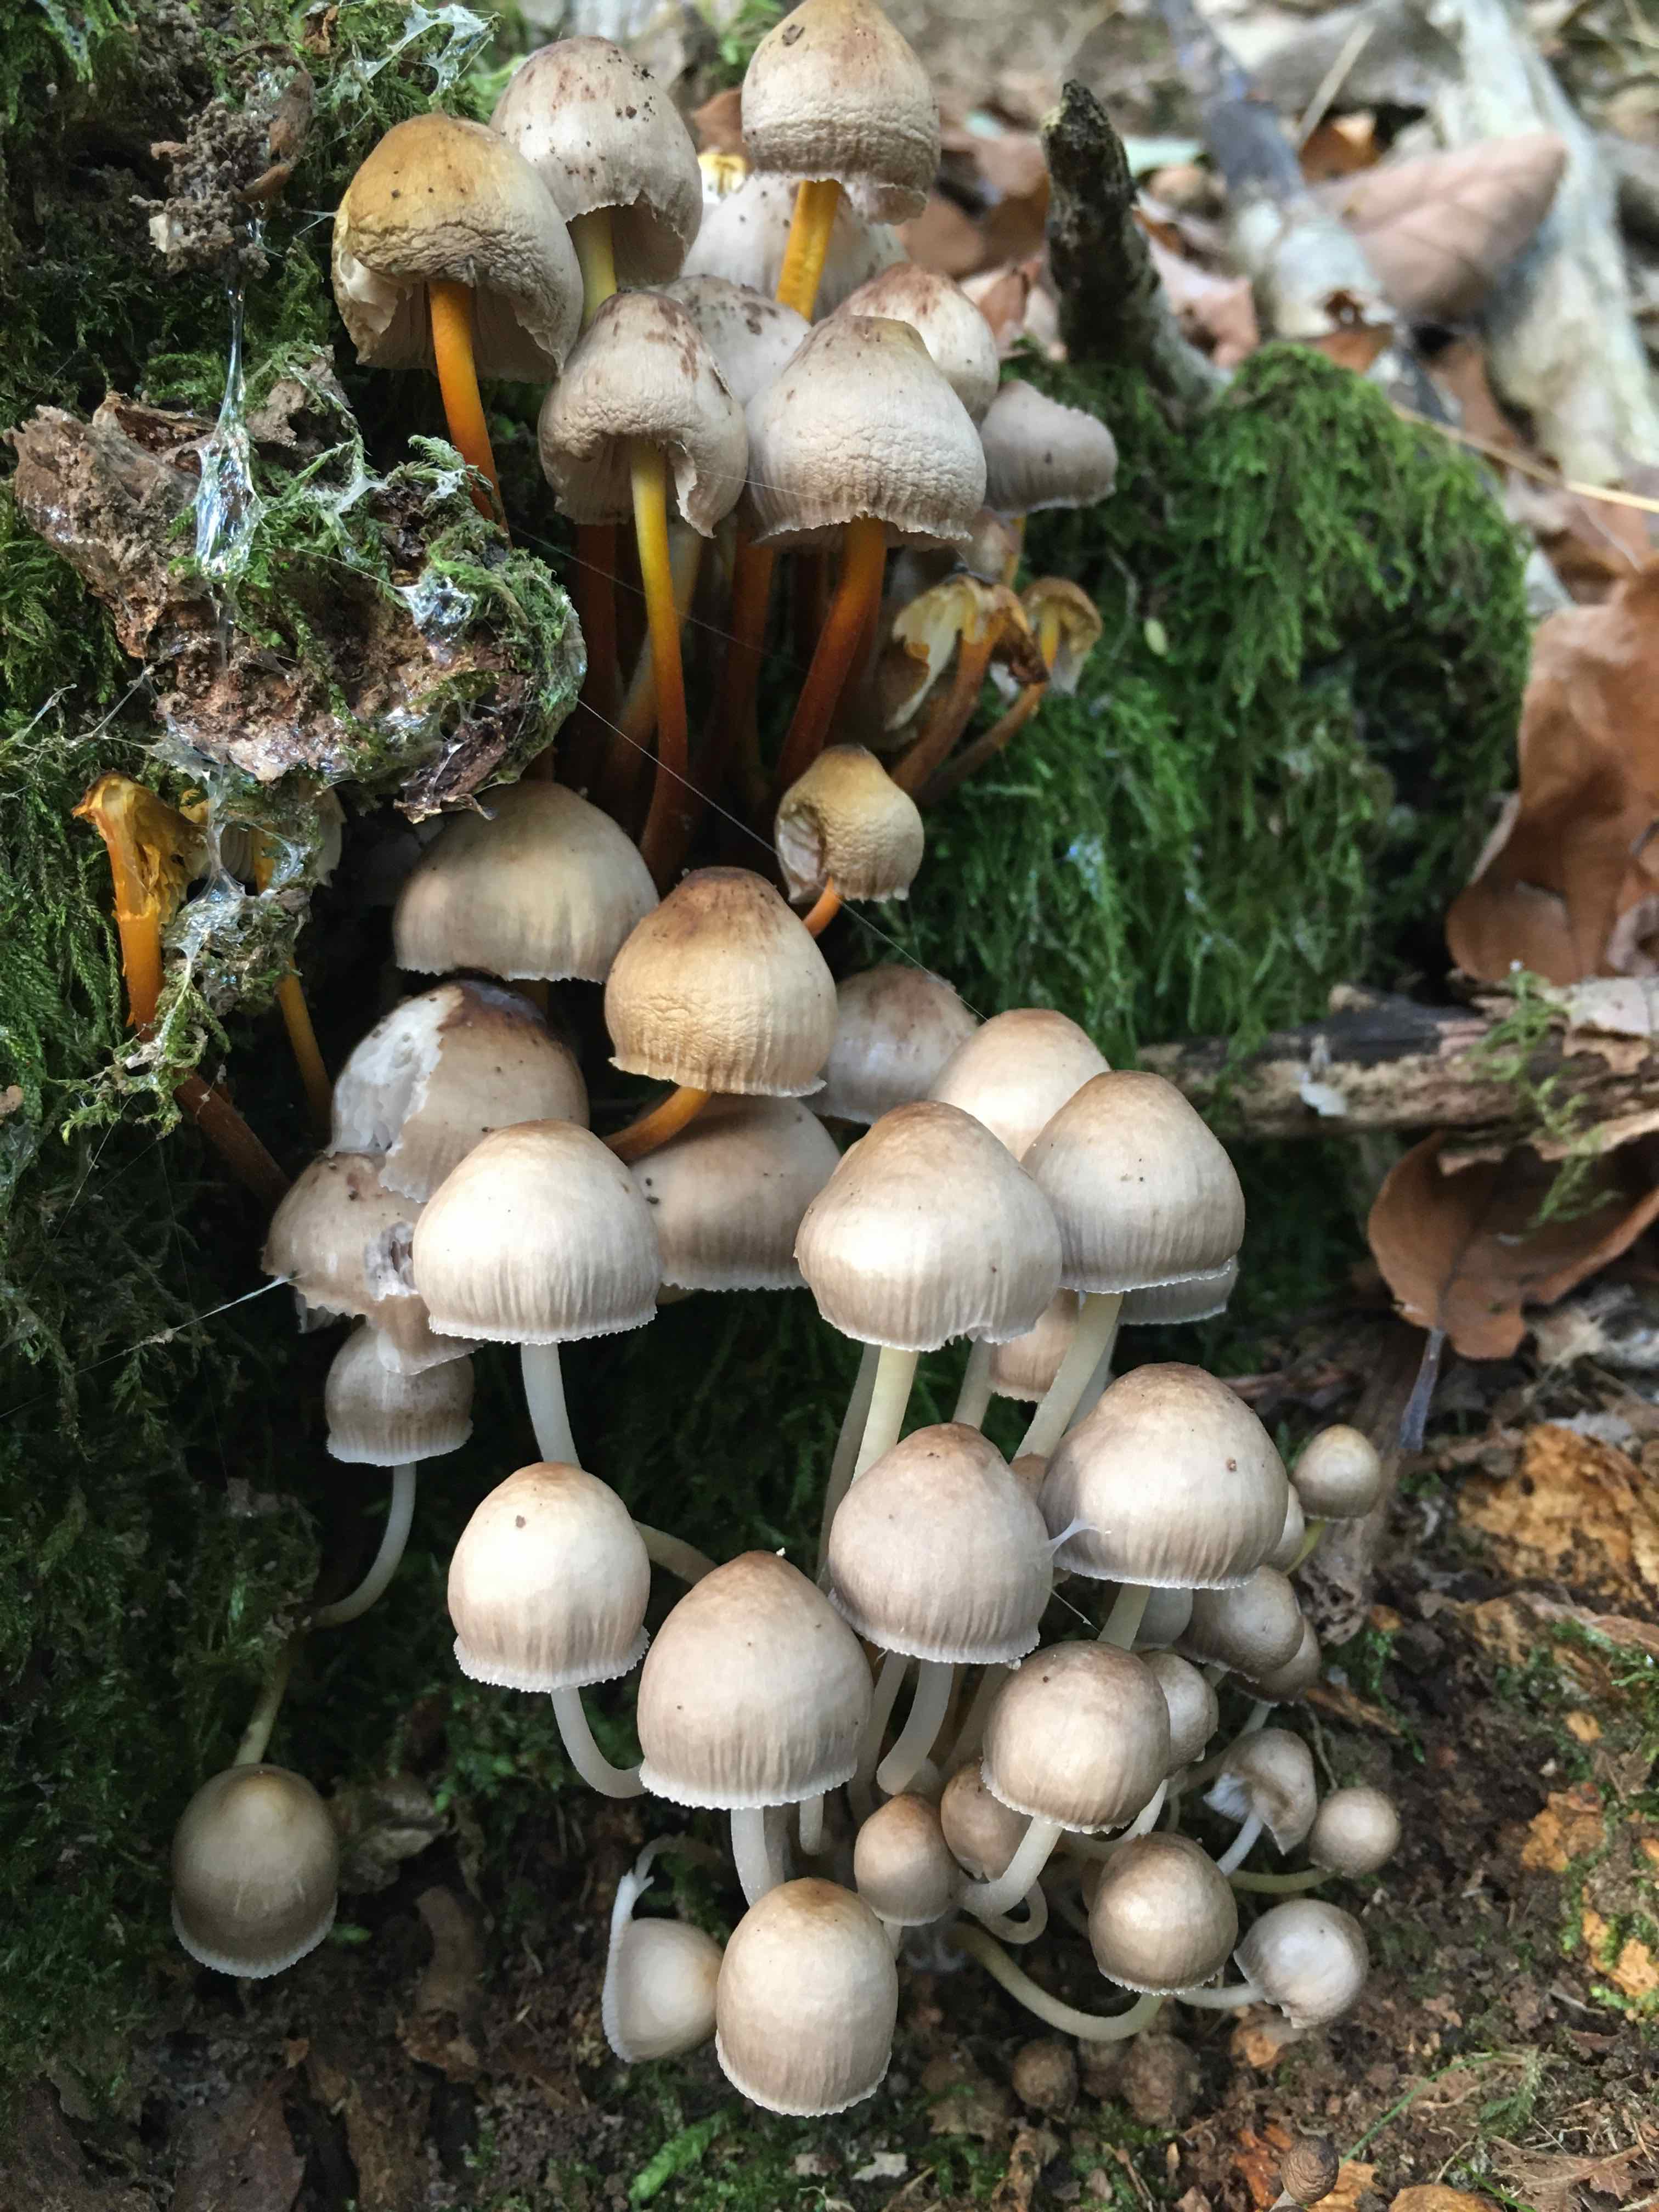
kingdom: Fungi
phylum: Basidiomycota
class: Agaricomycetes
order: Agaricales
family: Mycenaceae
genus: Mycena
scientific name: Mycena inclinata
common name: nikkende huesvamp
